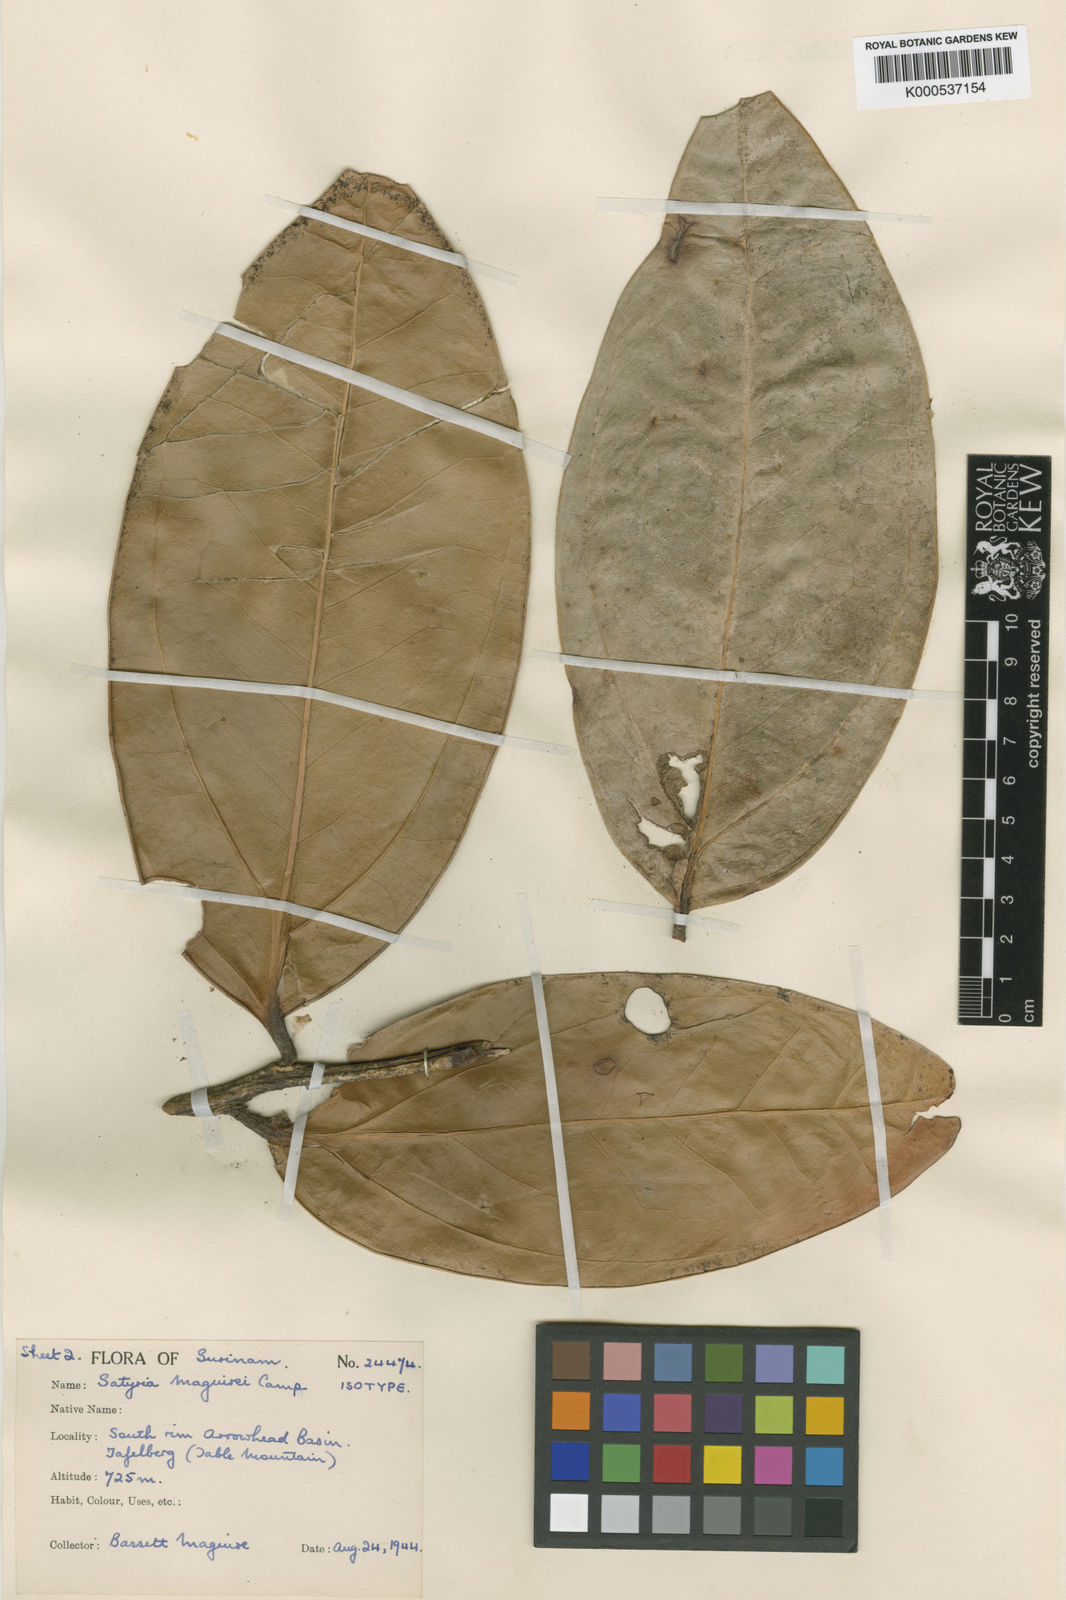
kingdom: Plantae
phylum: Tracheophyta
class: Magnoliopsida
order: Ericales
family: Ericaceae
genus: Satyria
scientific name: Satyria carnosiflora
